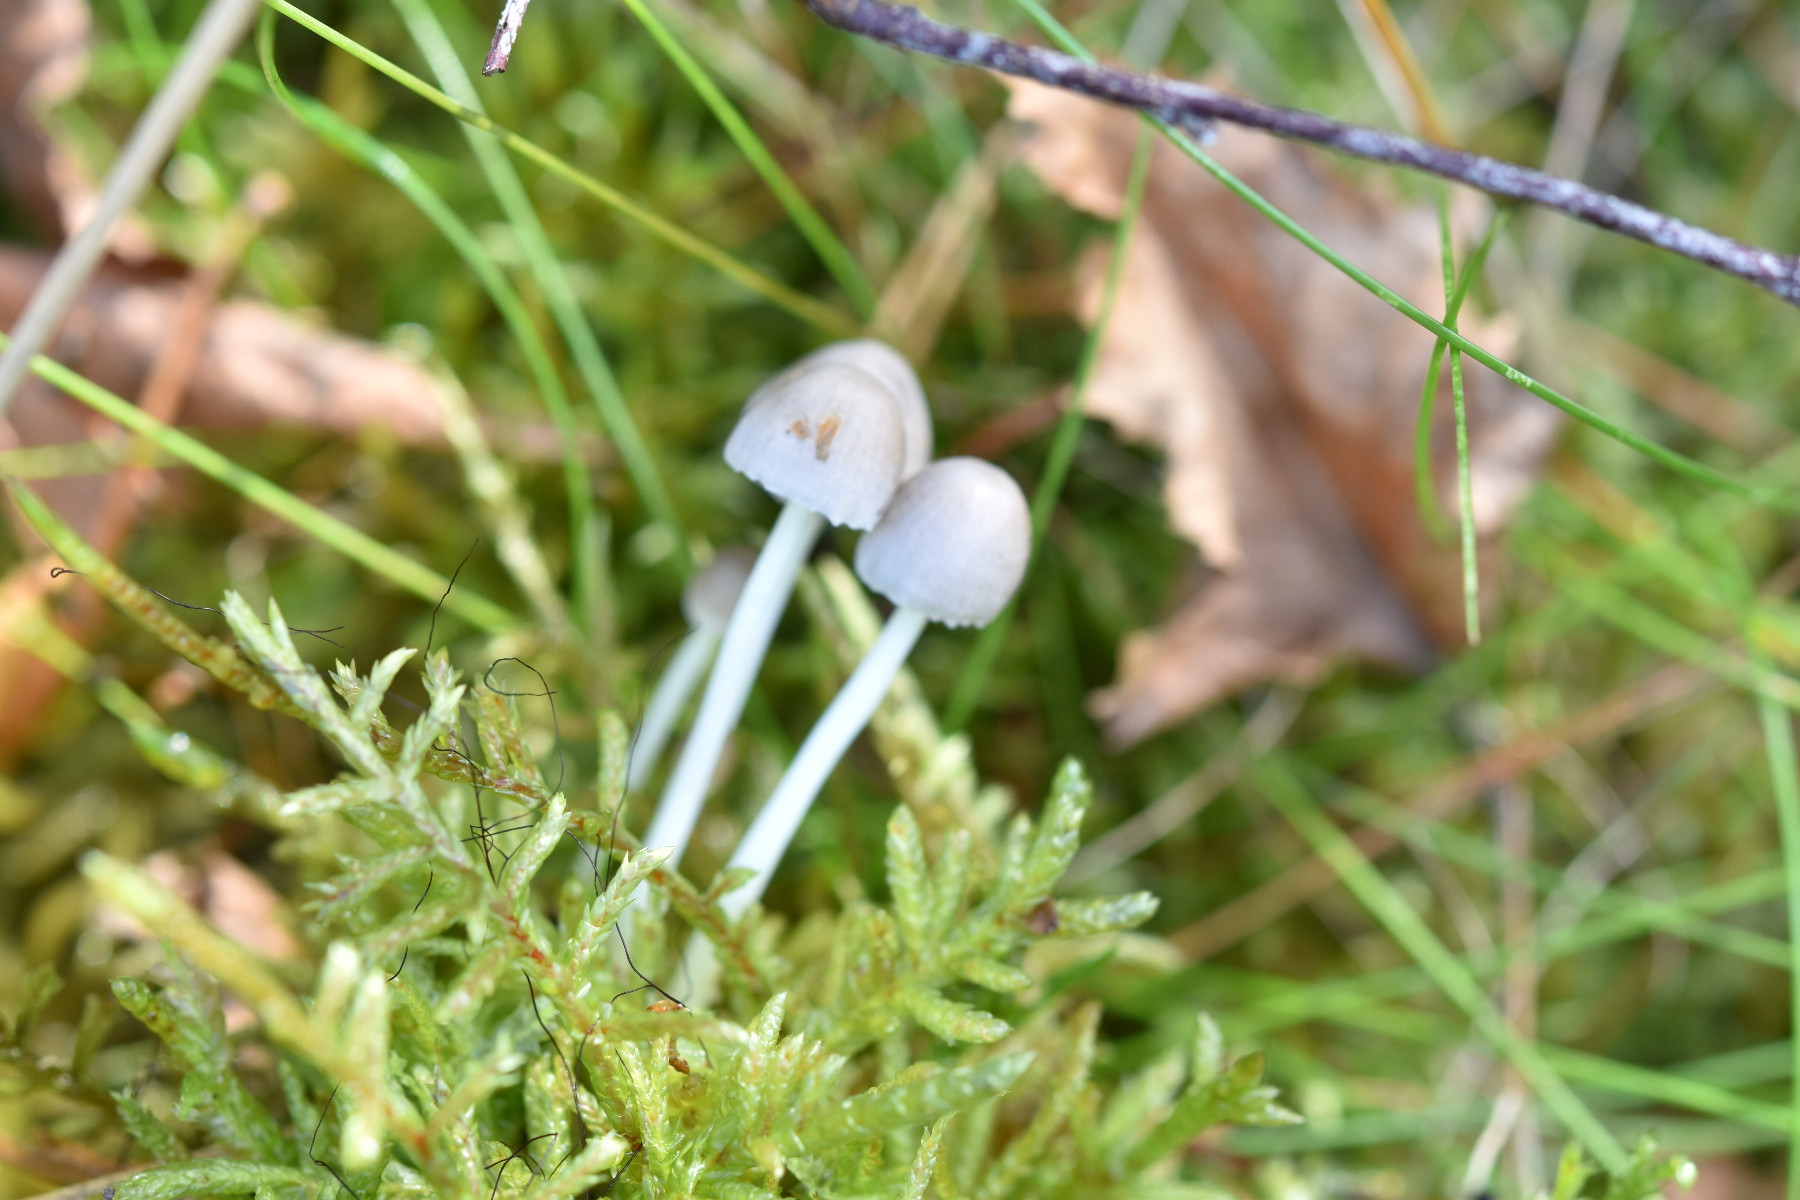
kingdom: Fungi
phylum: Basidiomycota
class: Agaricomycetes
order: Agaricales
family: Mycenaceae
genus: Mycena
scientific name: Mycena epipterygia
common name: gulstokket huesvamp
